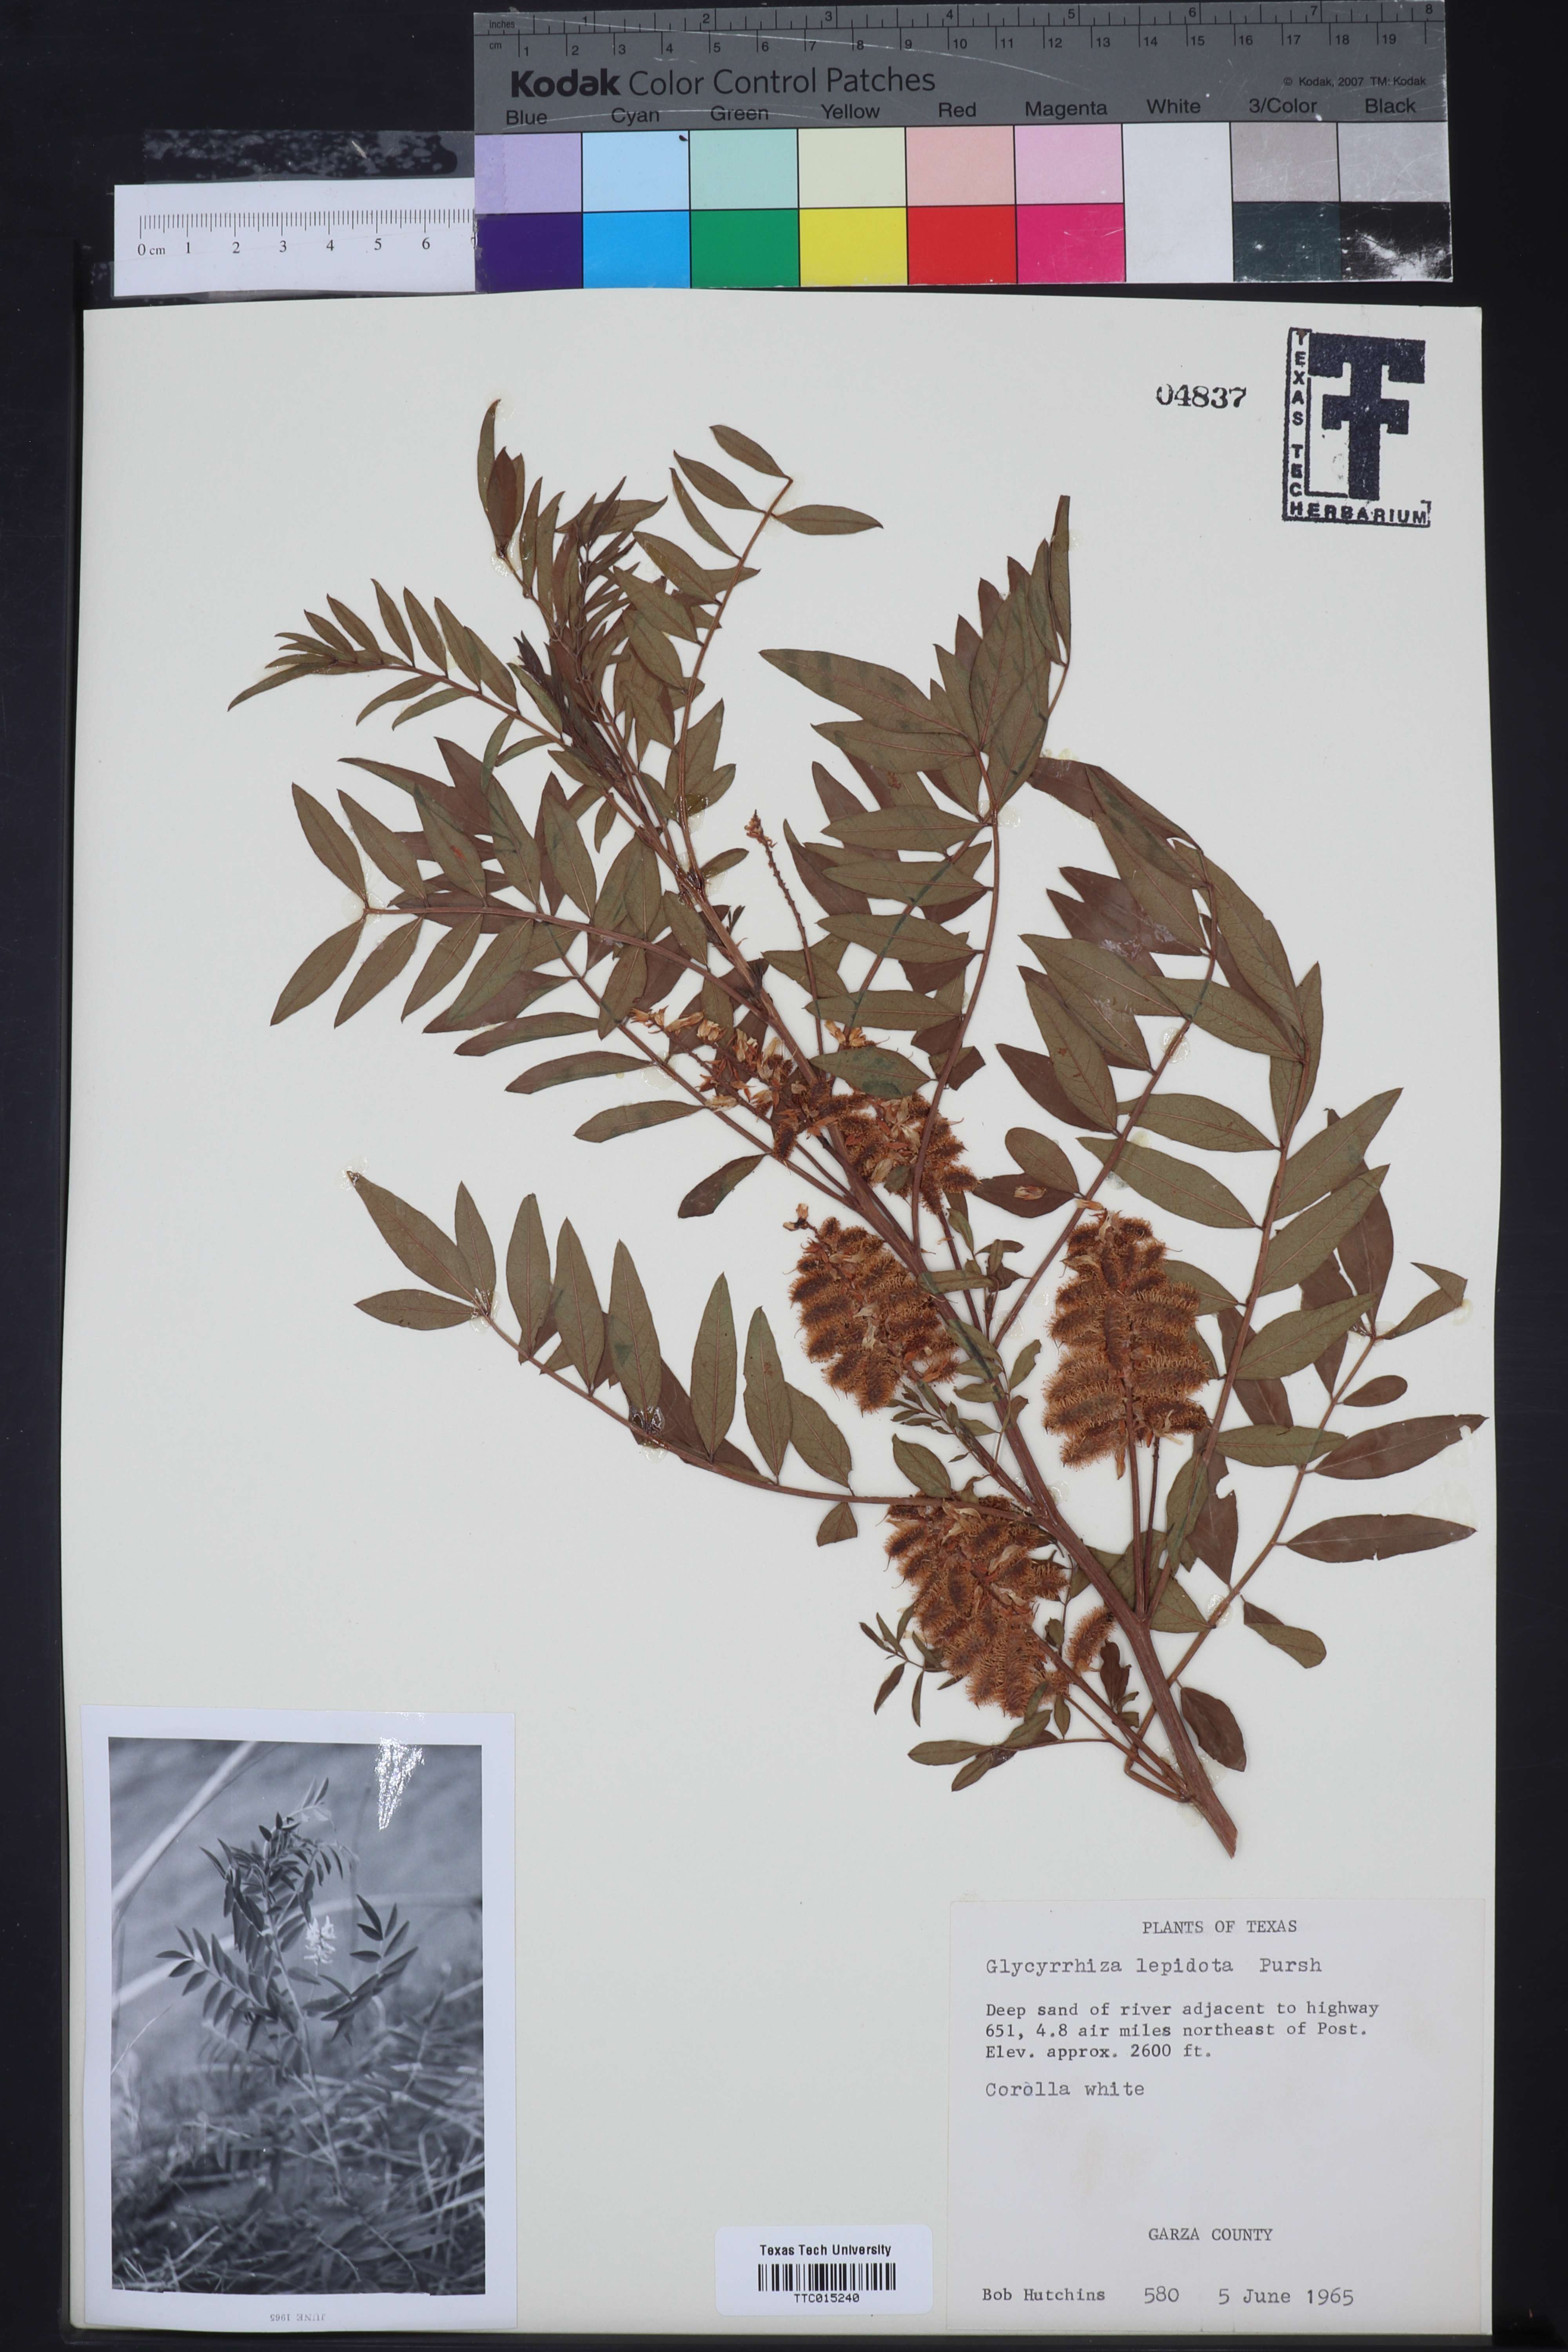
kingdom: Plantae
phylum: Tracheophyta
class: Magnoliopsida
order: Fabales
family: Fabaceae
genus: Glycyrrhiza
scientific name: Glycyrrhiza lepidota
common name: American liquorice
